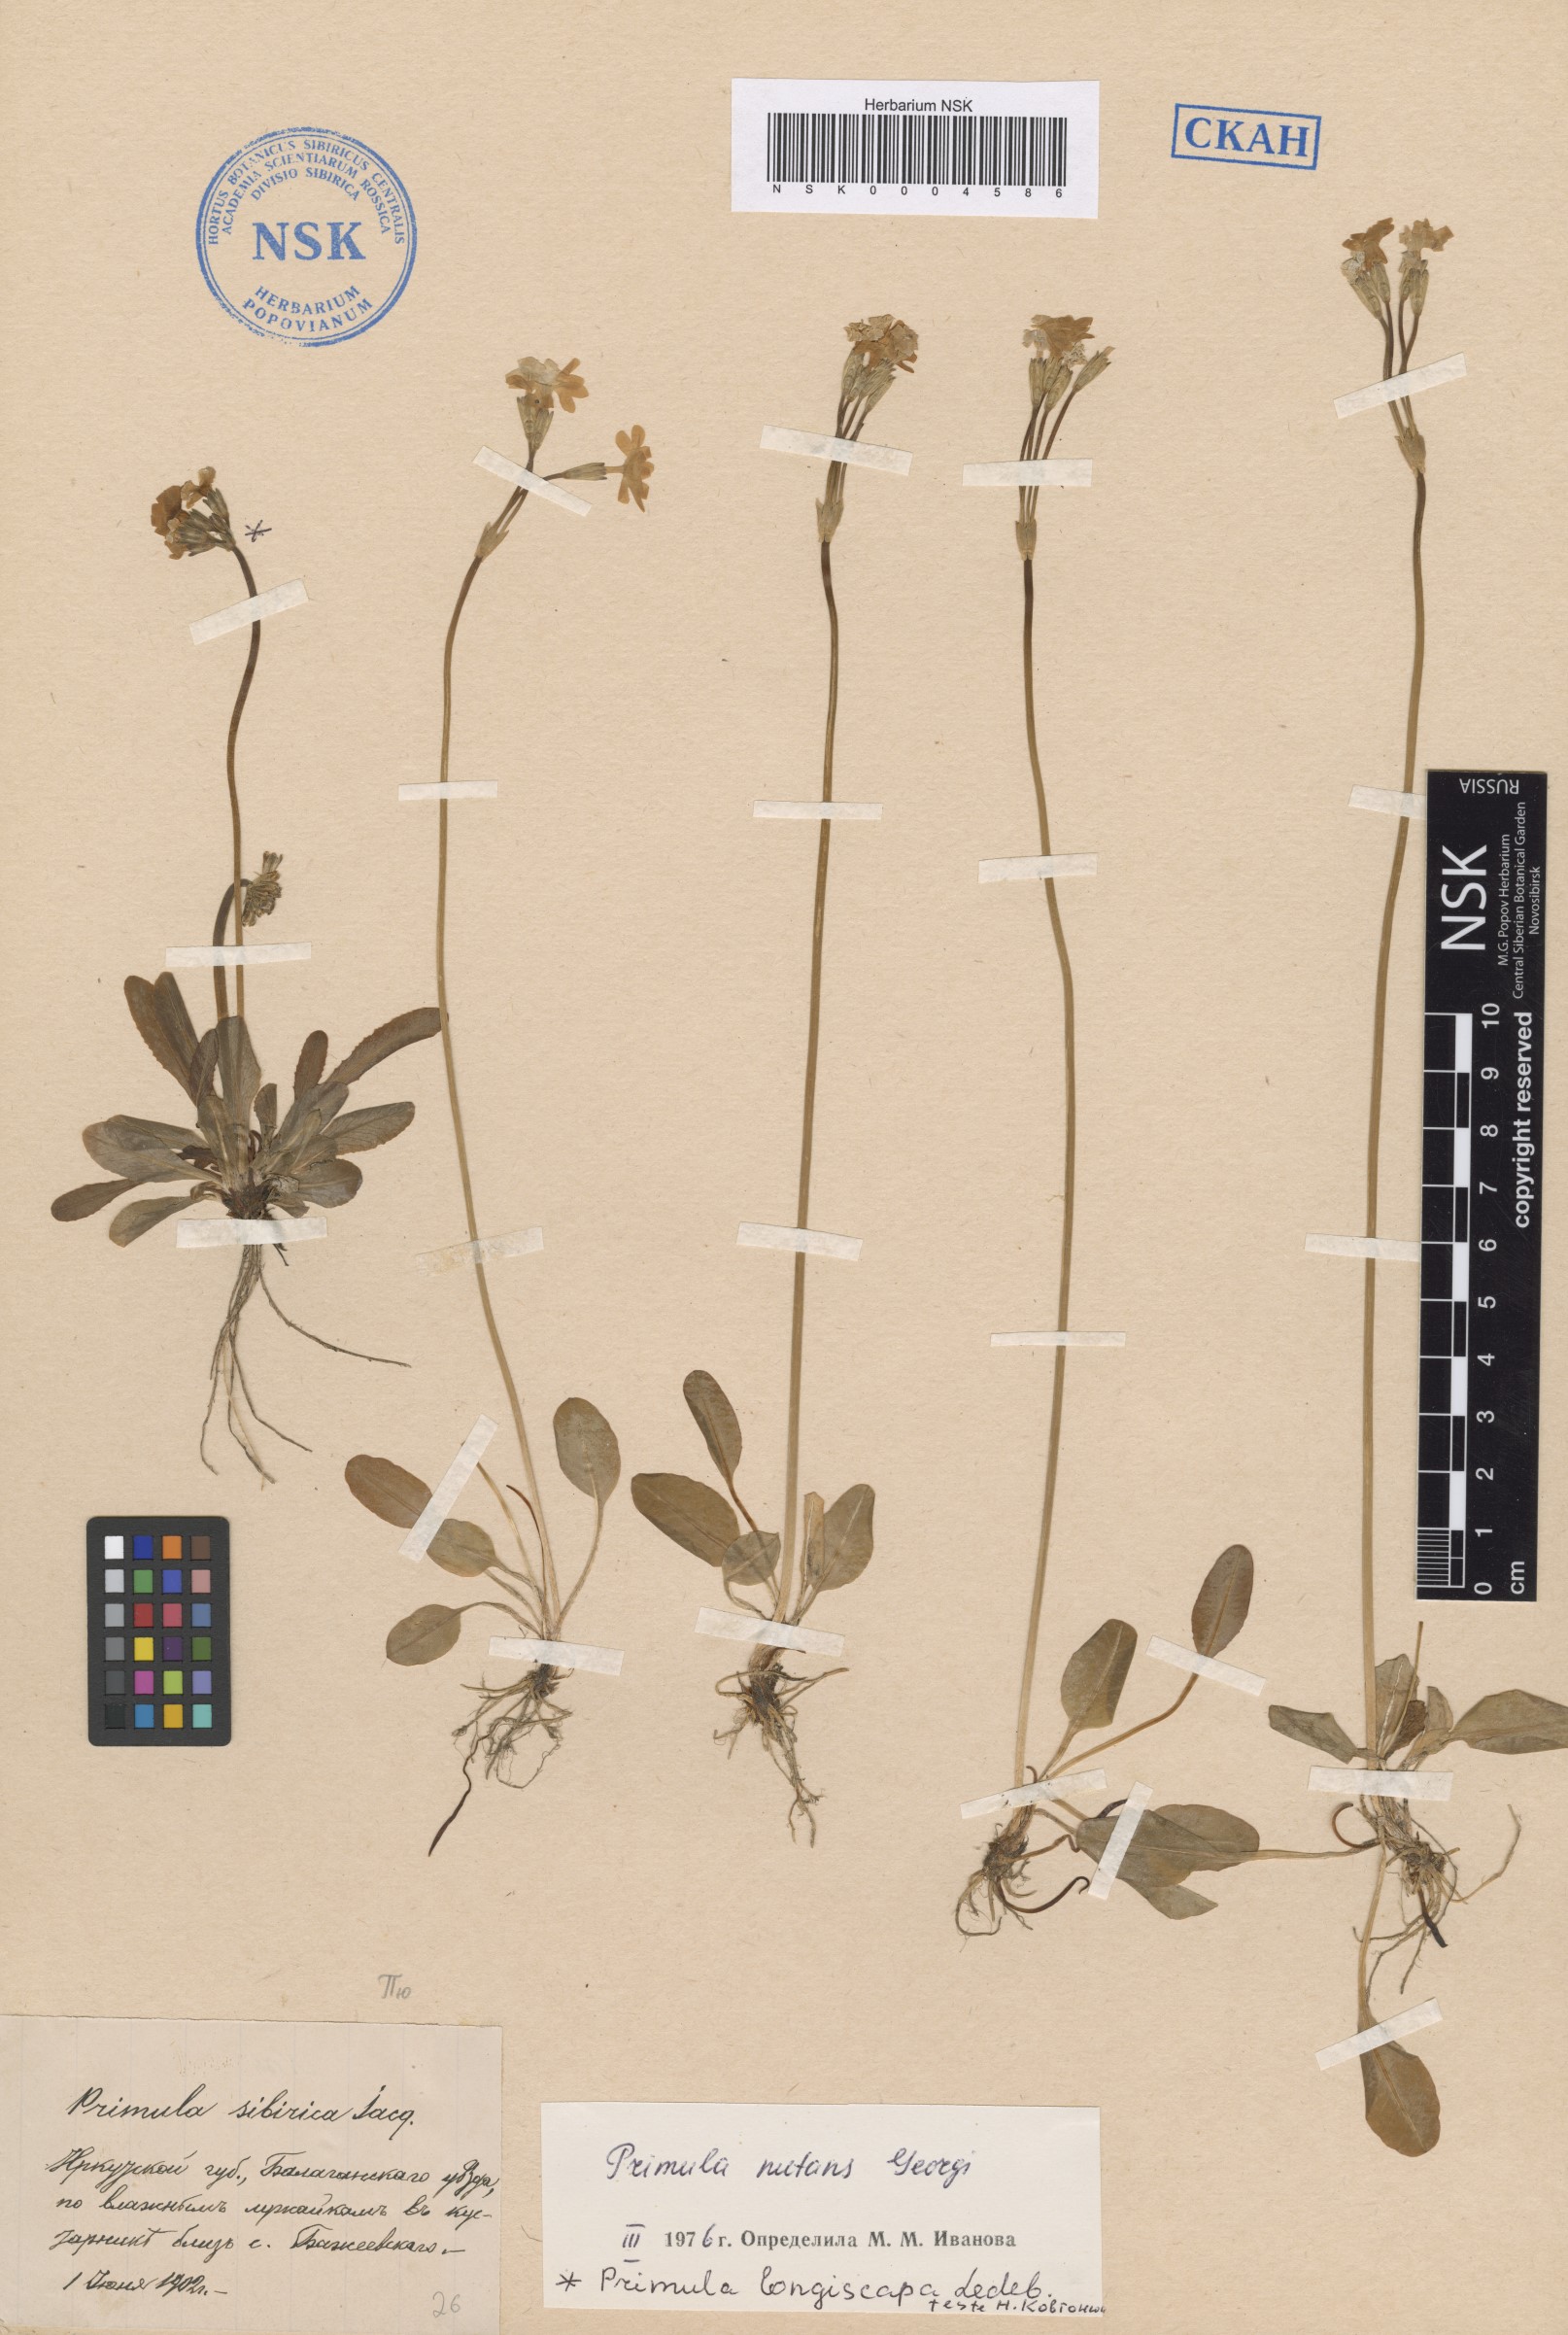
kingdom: Plantae
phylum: Tracheophyta
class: Magnoliopsida
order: Ericales
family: Primulaceae
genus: Primula
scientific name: Primula nutans
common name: Siberian primrose
